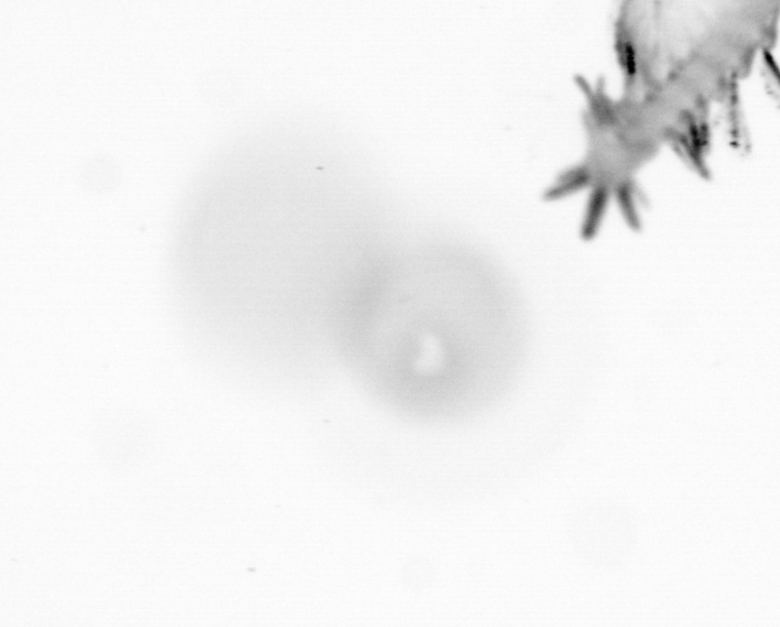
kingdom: Animalia
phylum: Annelida
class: Polychaeta
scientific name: Polychaeta
